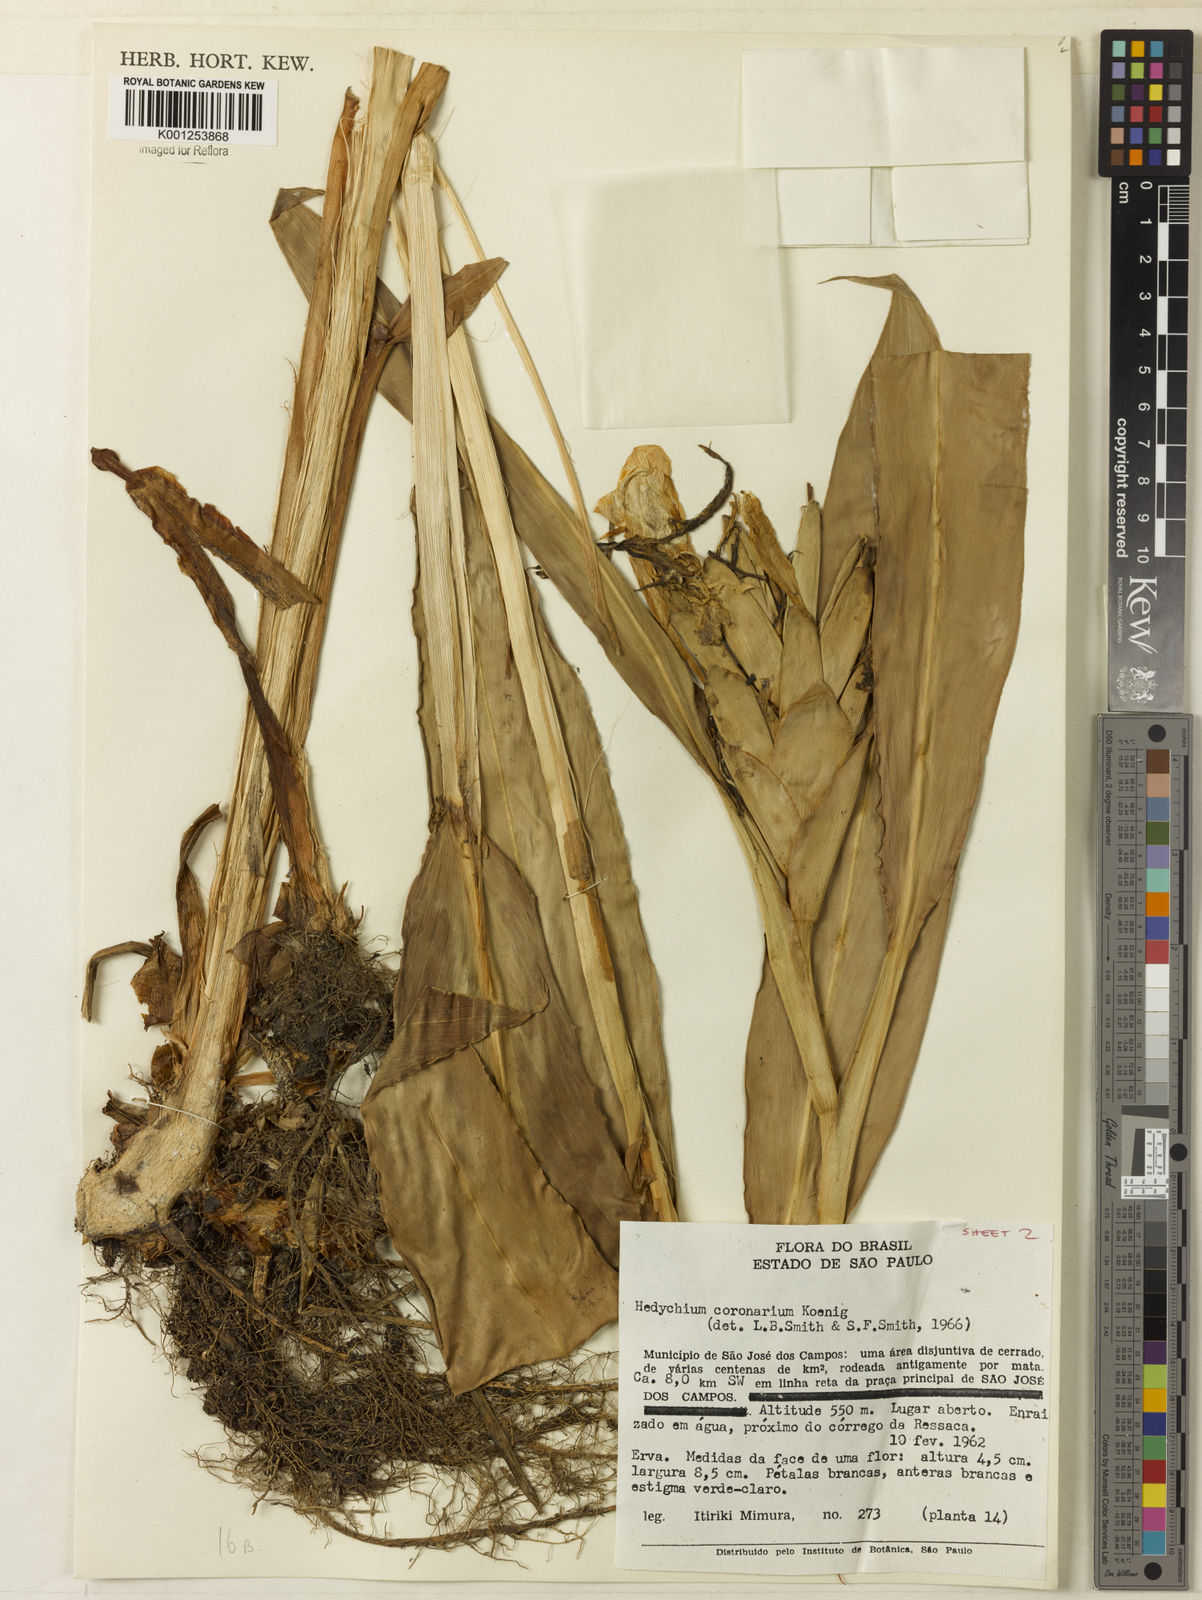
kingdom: Plantae
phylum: Tracheophyta
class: Liliopsida
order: Zingiberales
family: Zingiberaceae
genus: Hedychium
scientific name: Hedychium coronarium
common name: White garland-lily
